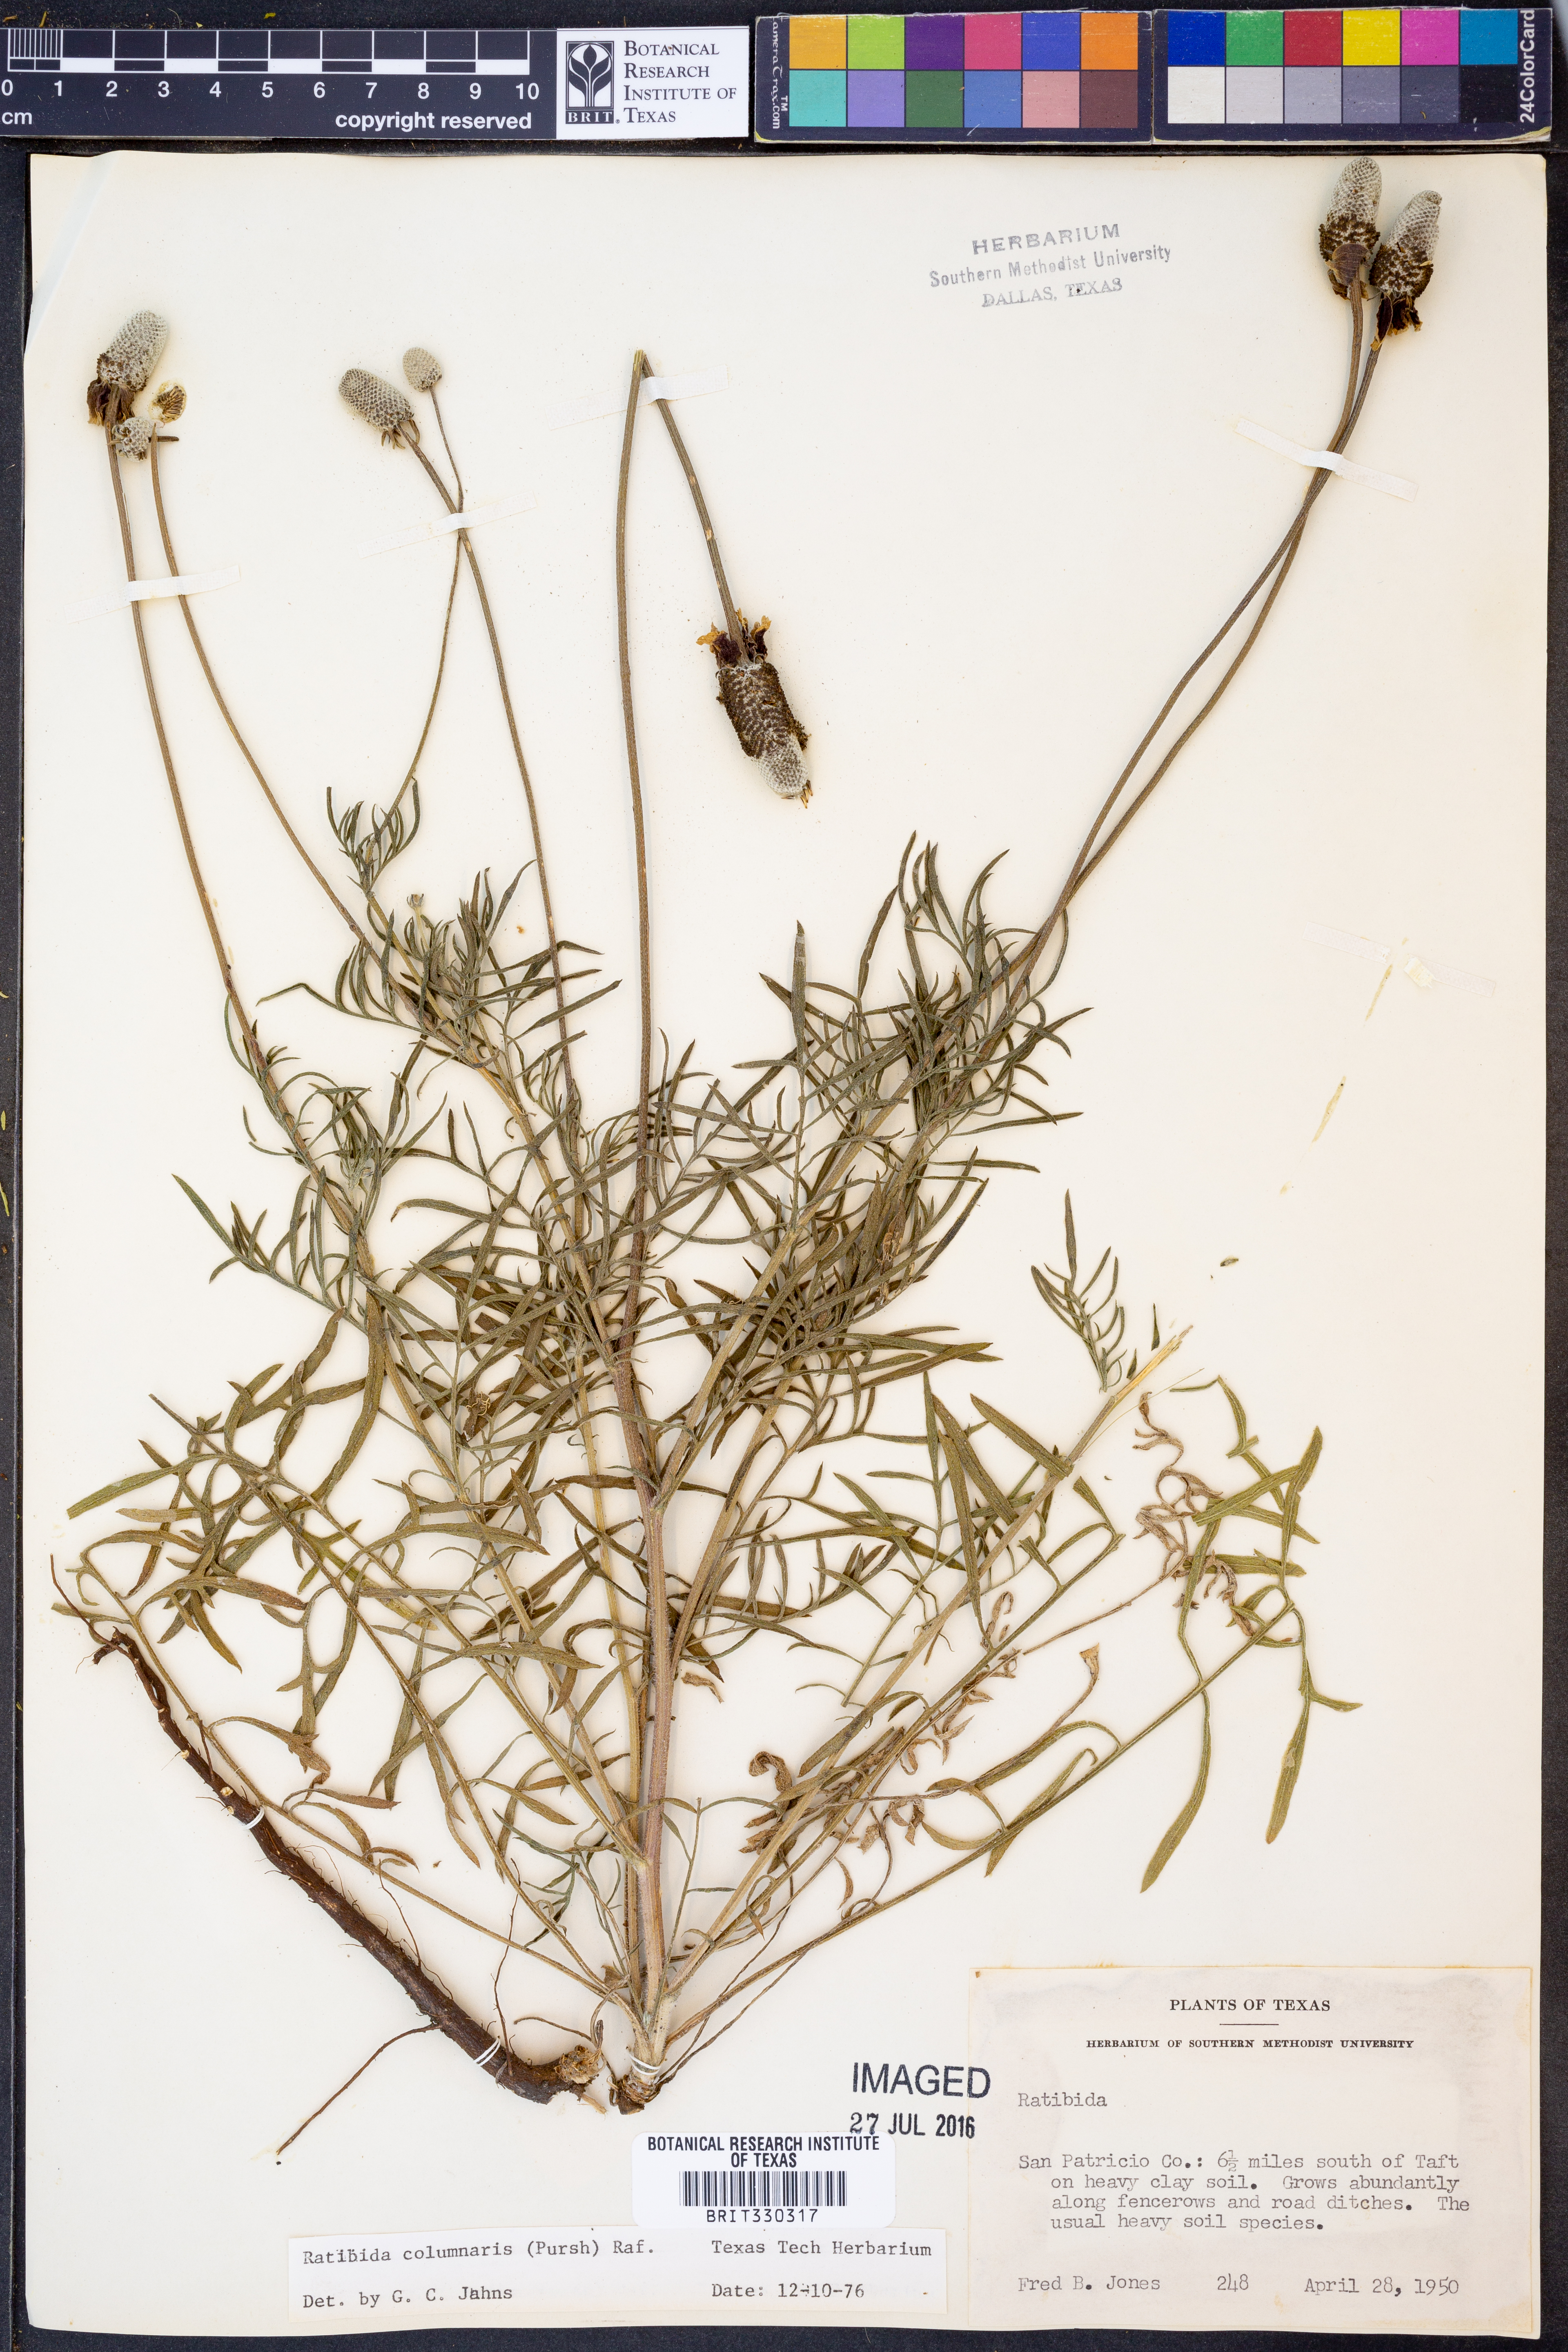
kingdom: Plantae
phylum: Tracheophyta
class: Magnoliopsida
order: Asterales
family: Asteraceae
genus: Ratibida
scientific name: Ratibida columnifera
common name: Prairie coneflower
